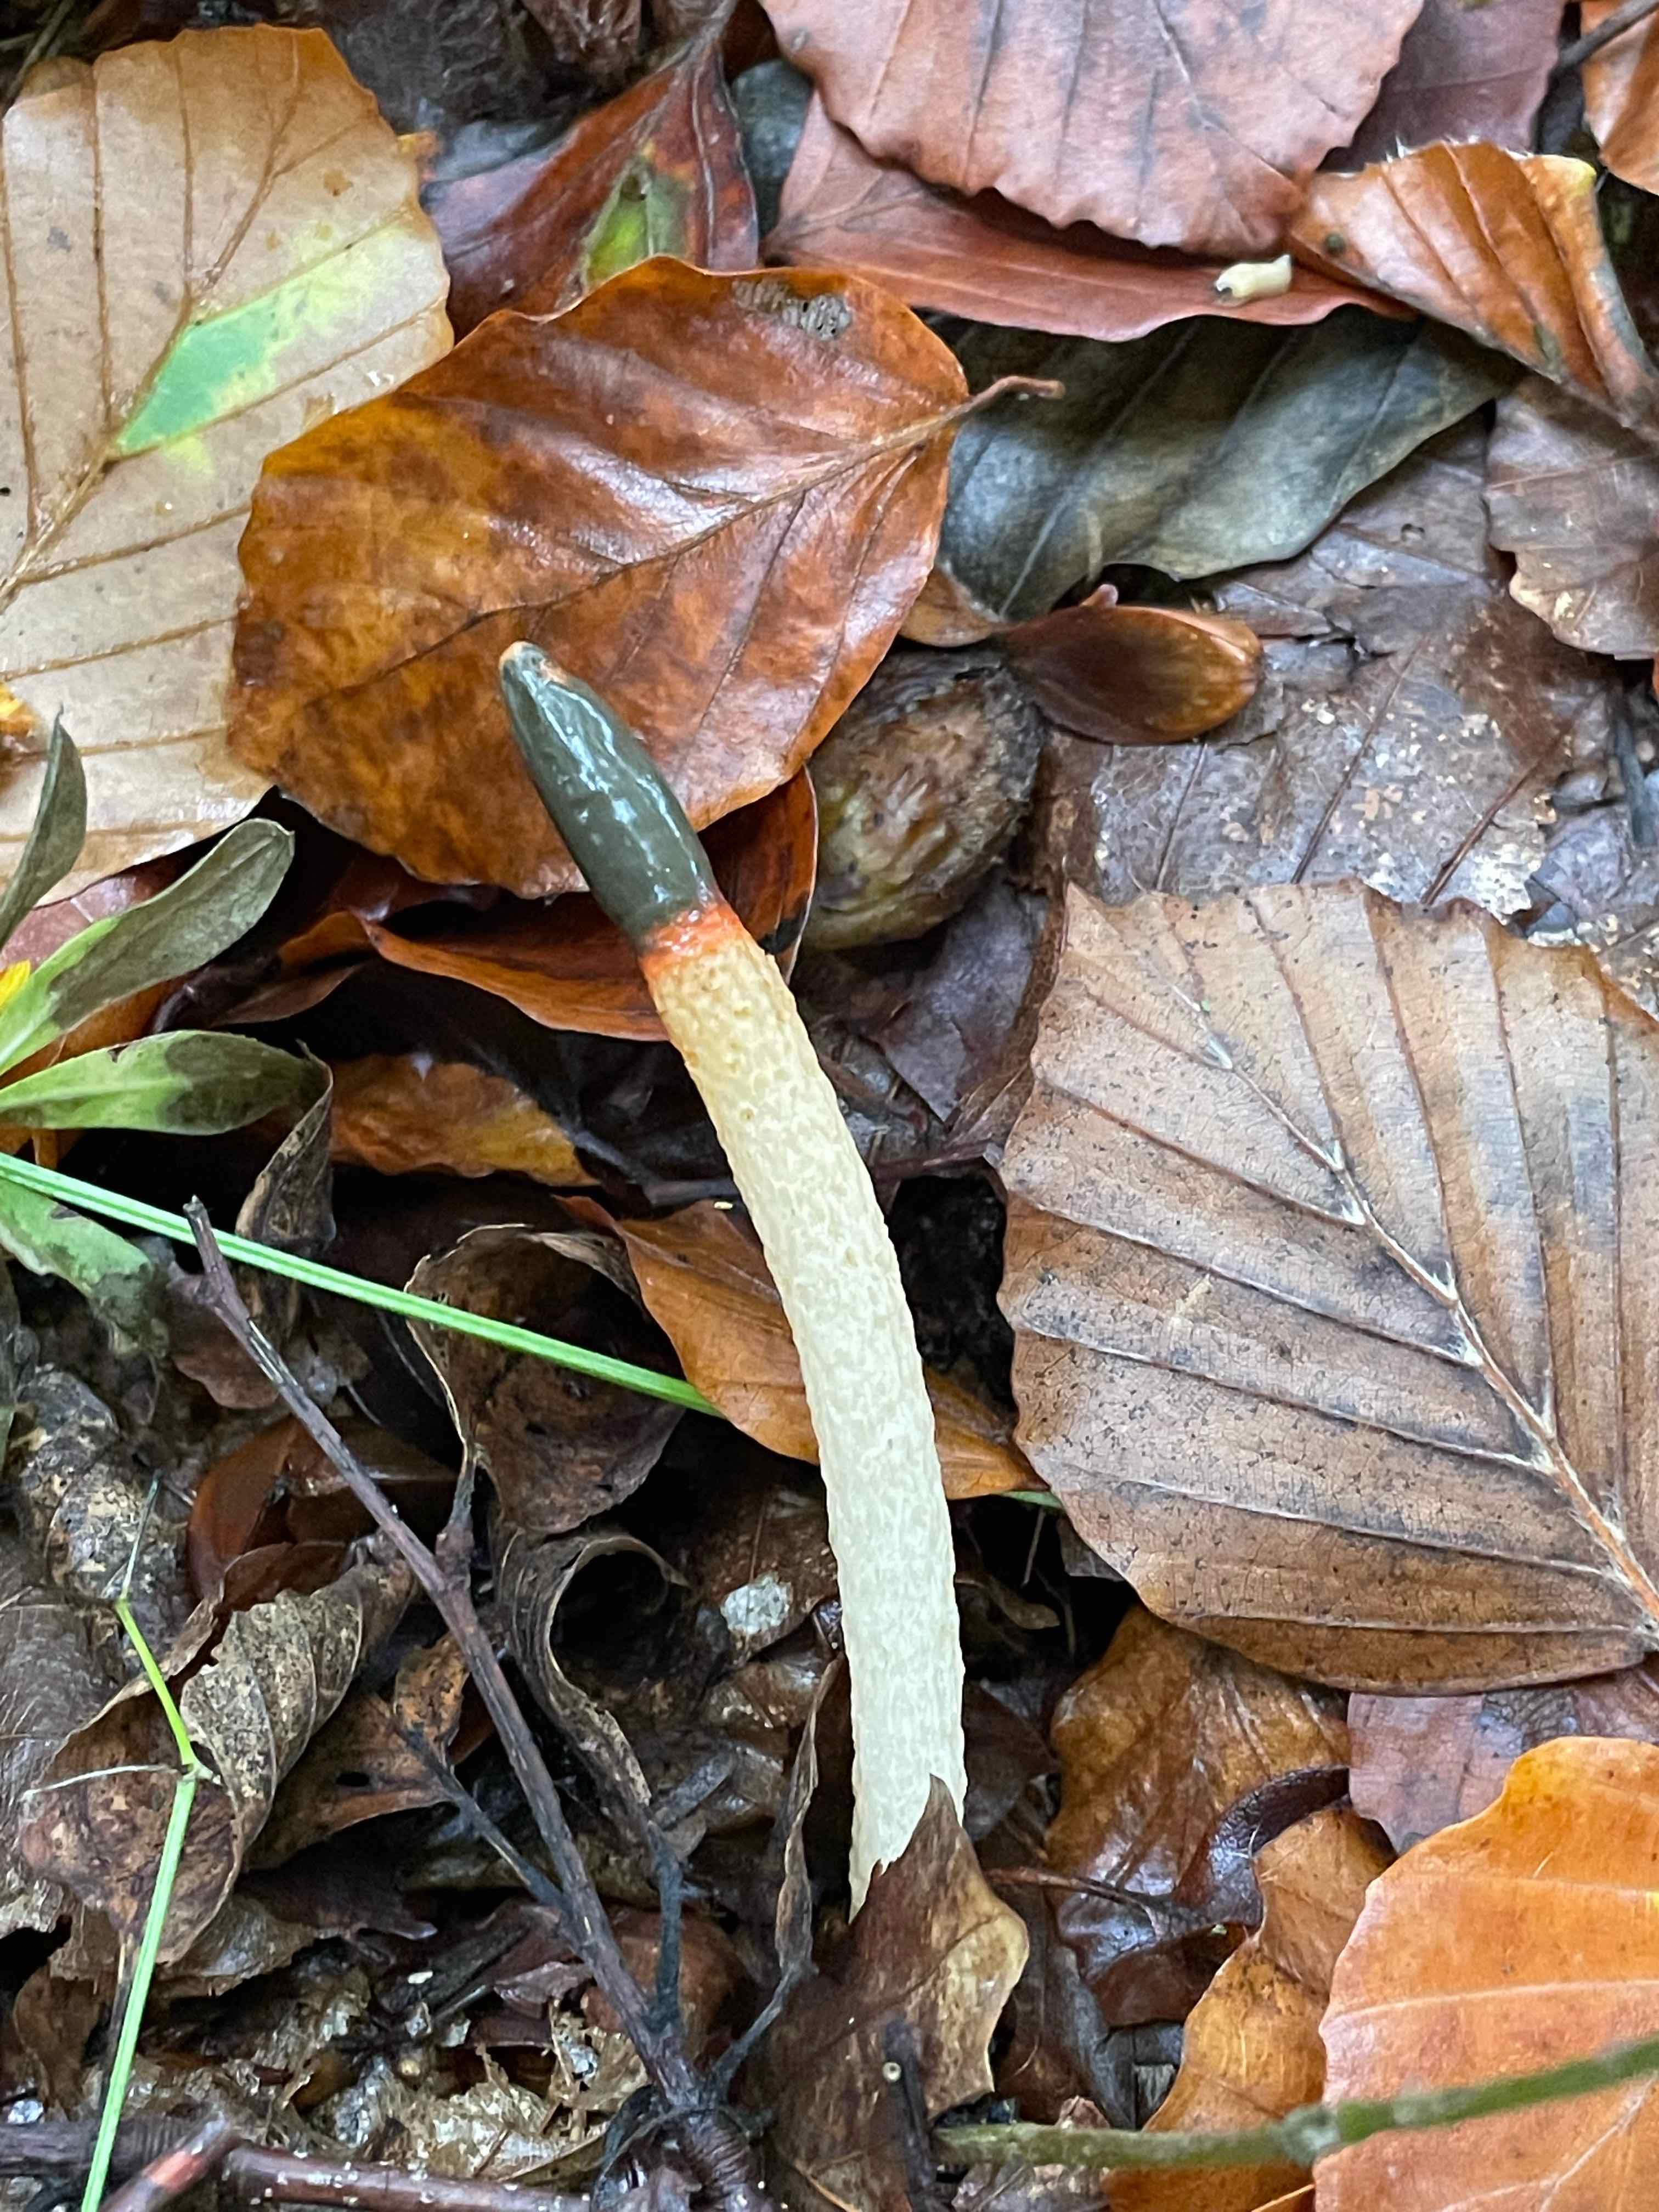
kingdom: Fungi
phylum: Basidiomycota
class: Agaricomycetes
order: Phallales
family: Phallaceae
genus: Mutinus
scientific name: Mutinus caninus
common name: hunde-stinksvamp
